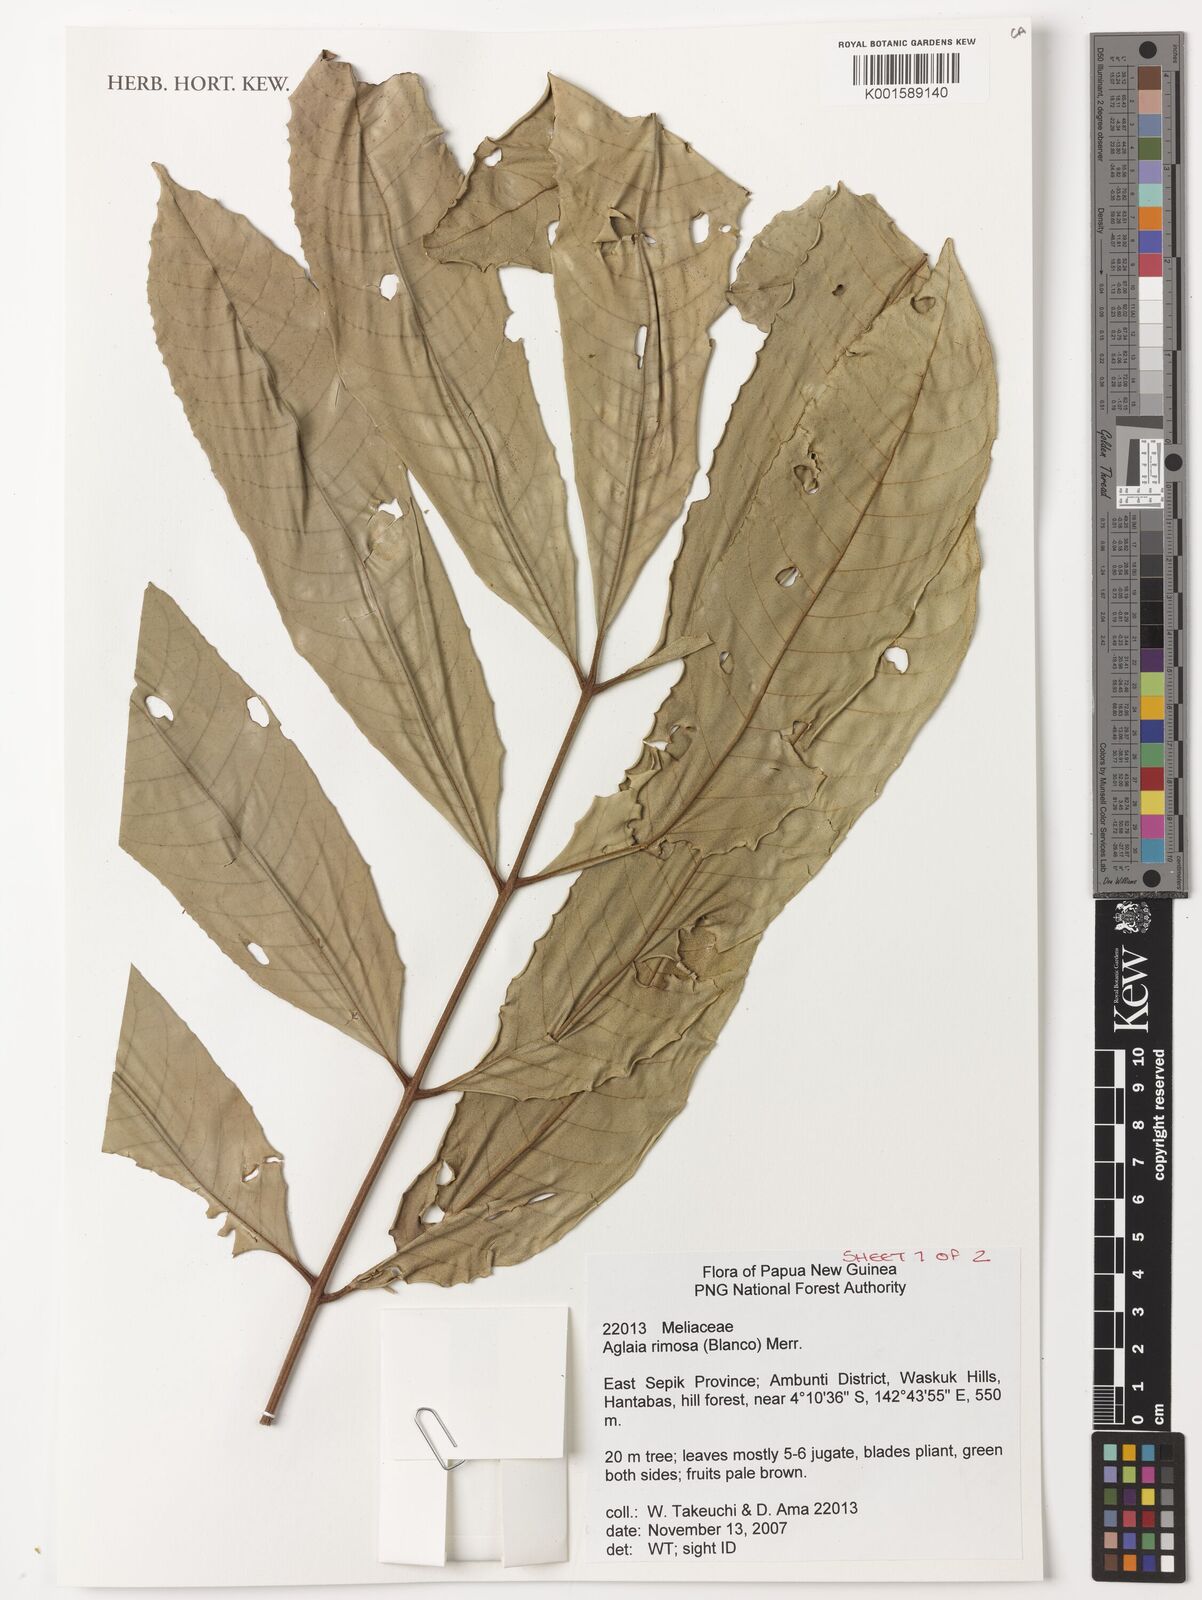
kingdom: Plantae
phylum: Tracheophyta
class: Magnoliopsida
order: Sapindales
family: Meliaceae
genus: Aglaia
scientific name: Aglaia rimosa
